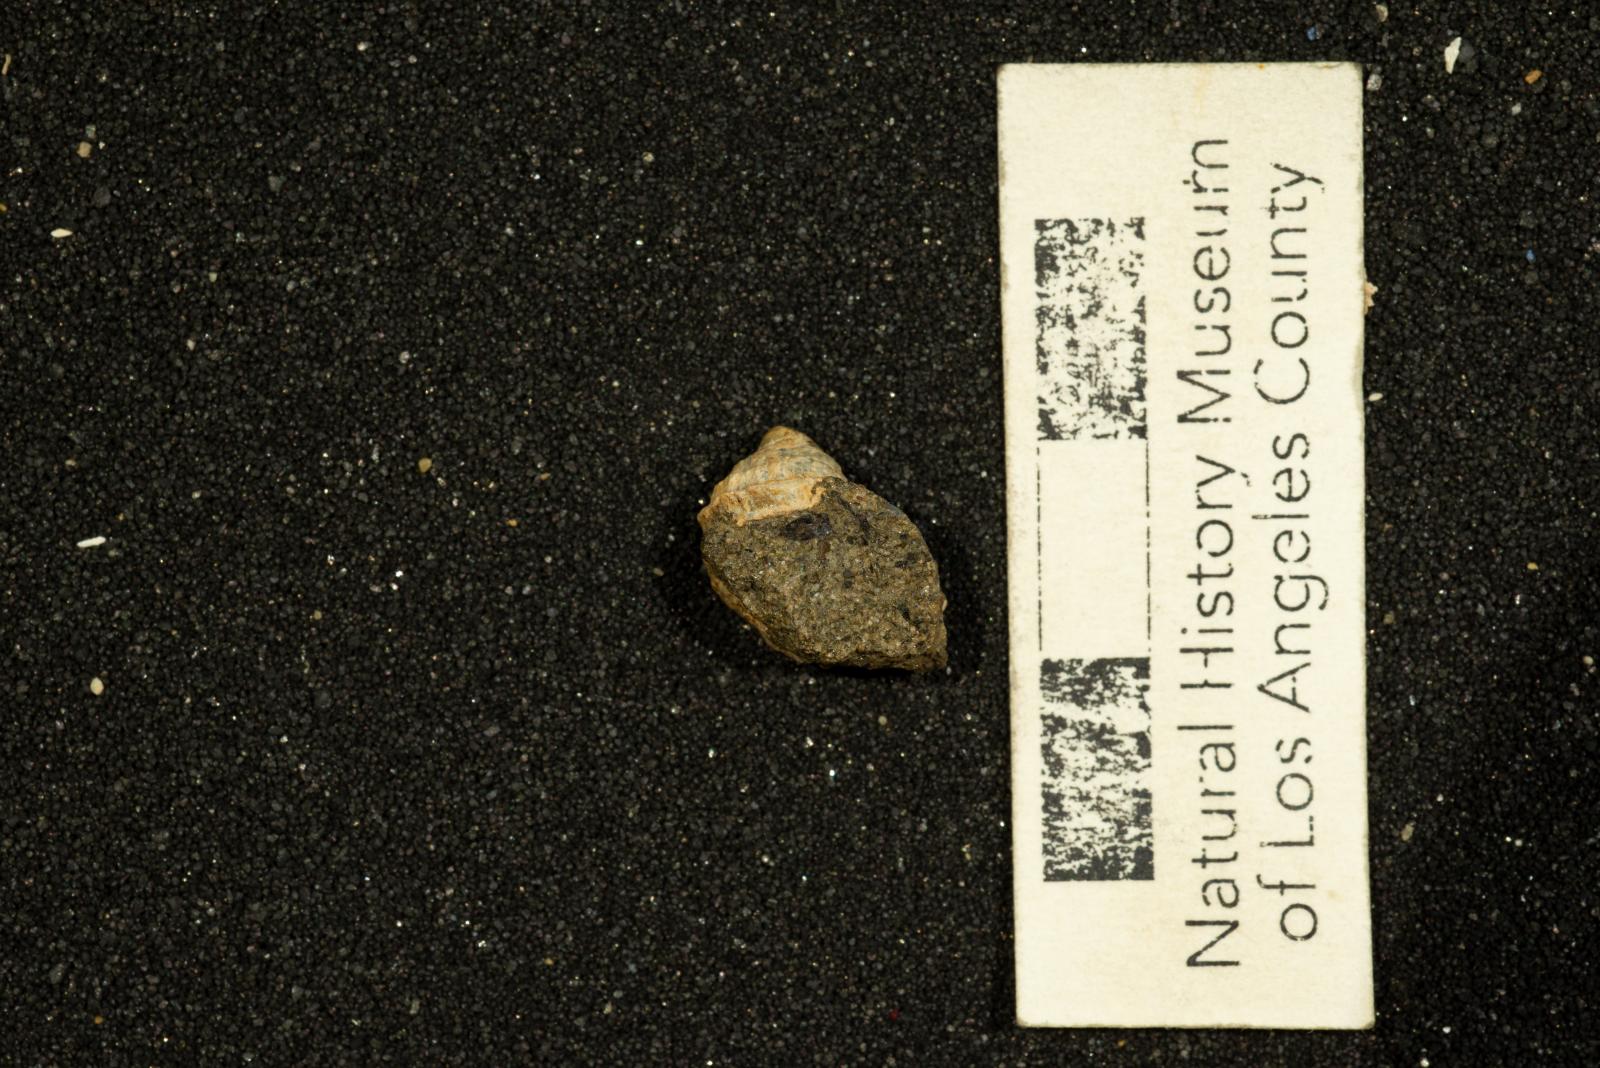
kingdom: Animalia
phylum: Mollusca
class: Gastropoda
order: Littorinimorpha
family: Calyptraeidae
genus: Lysis
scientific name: Lysis mickeyi
